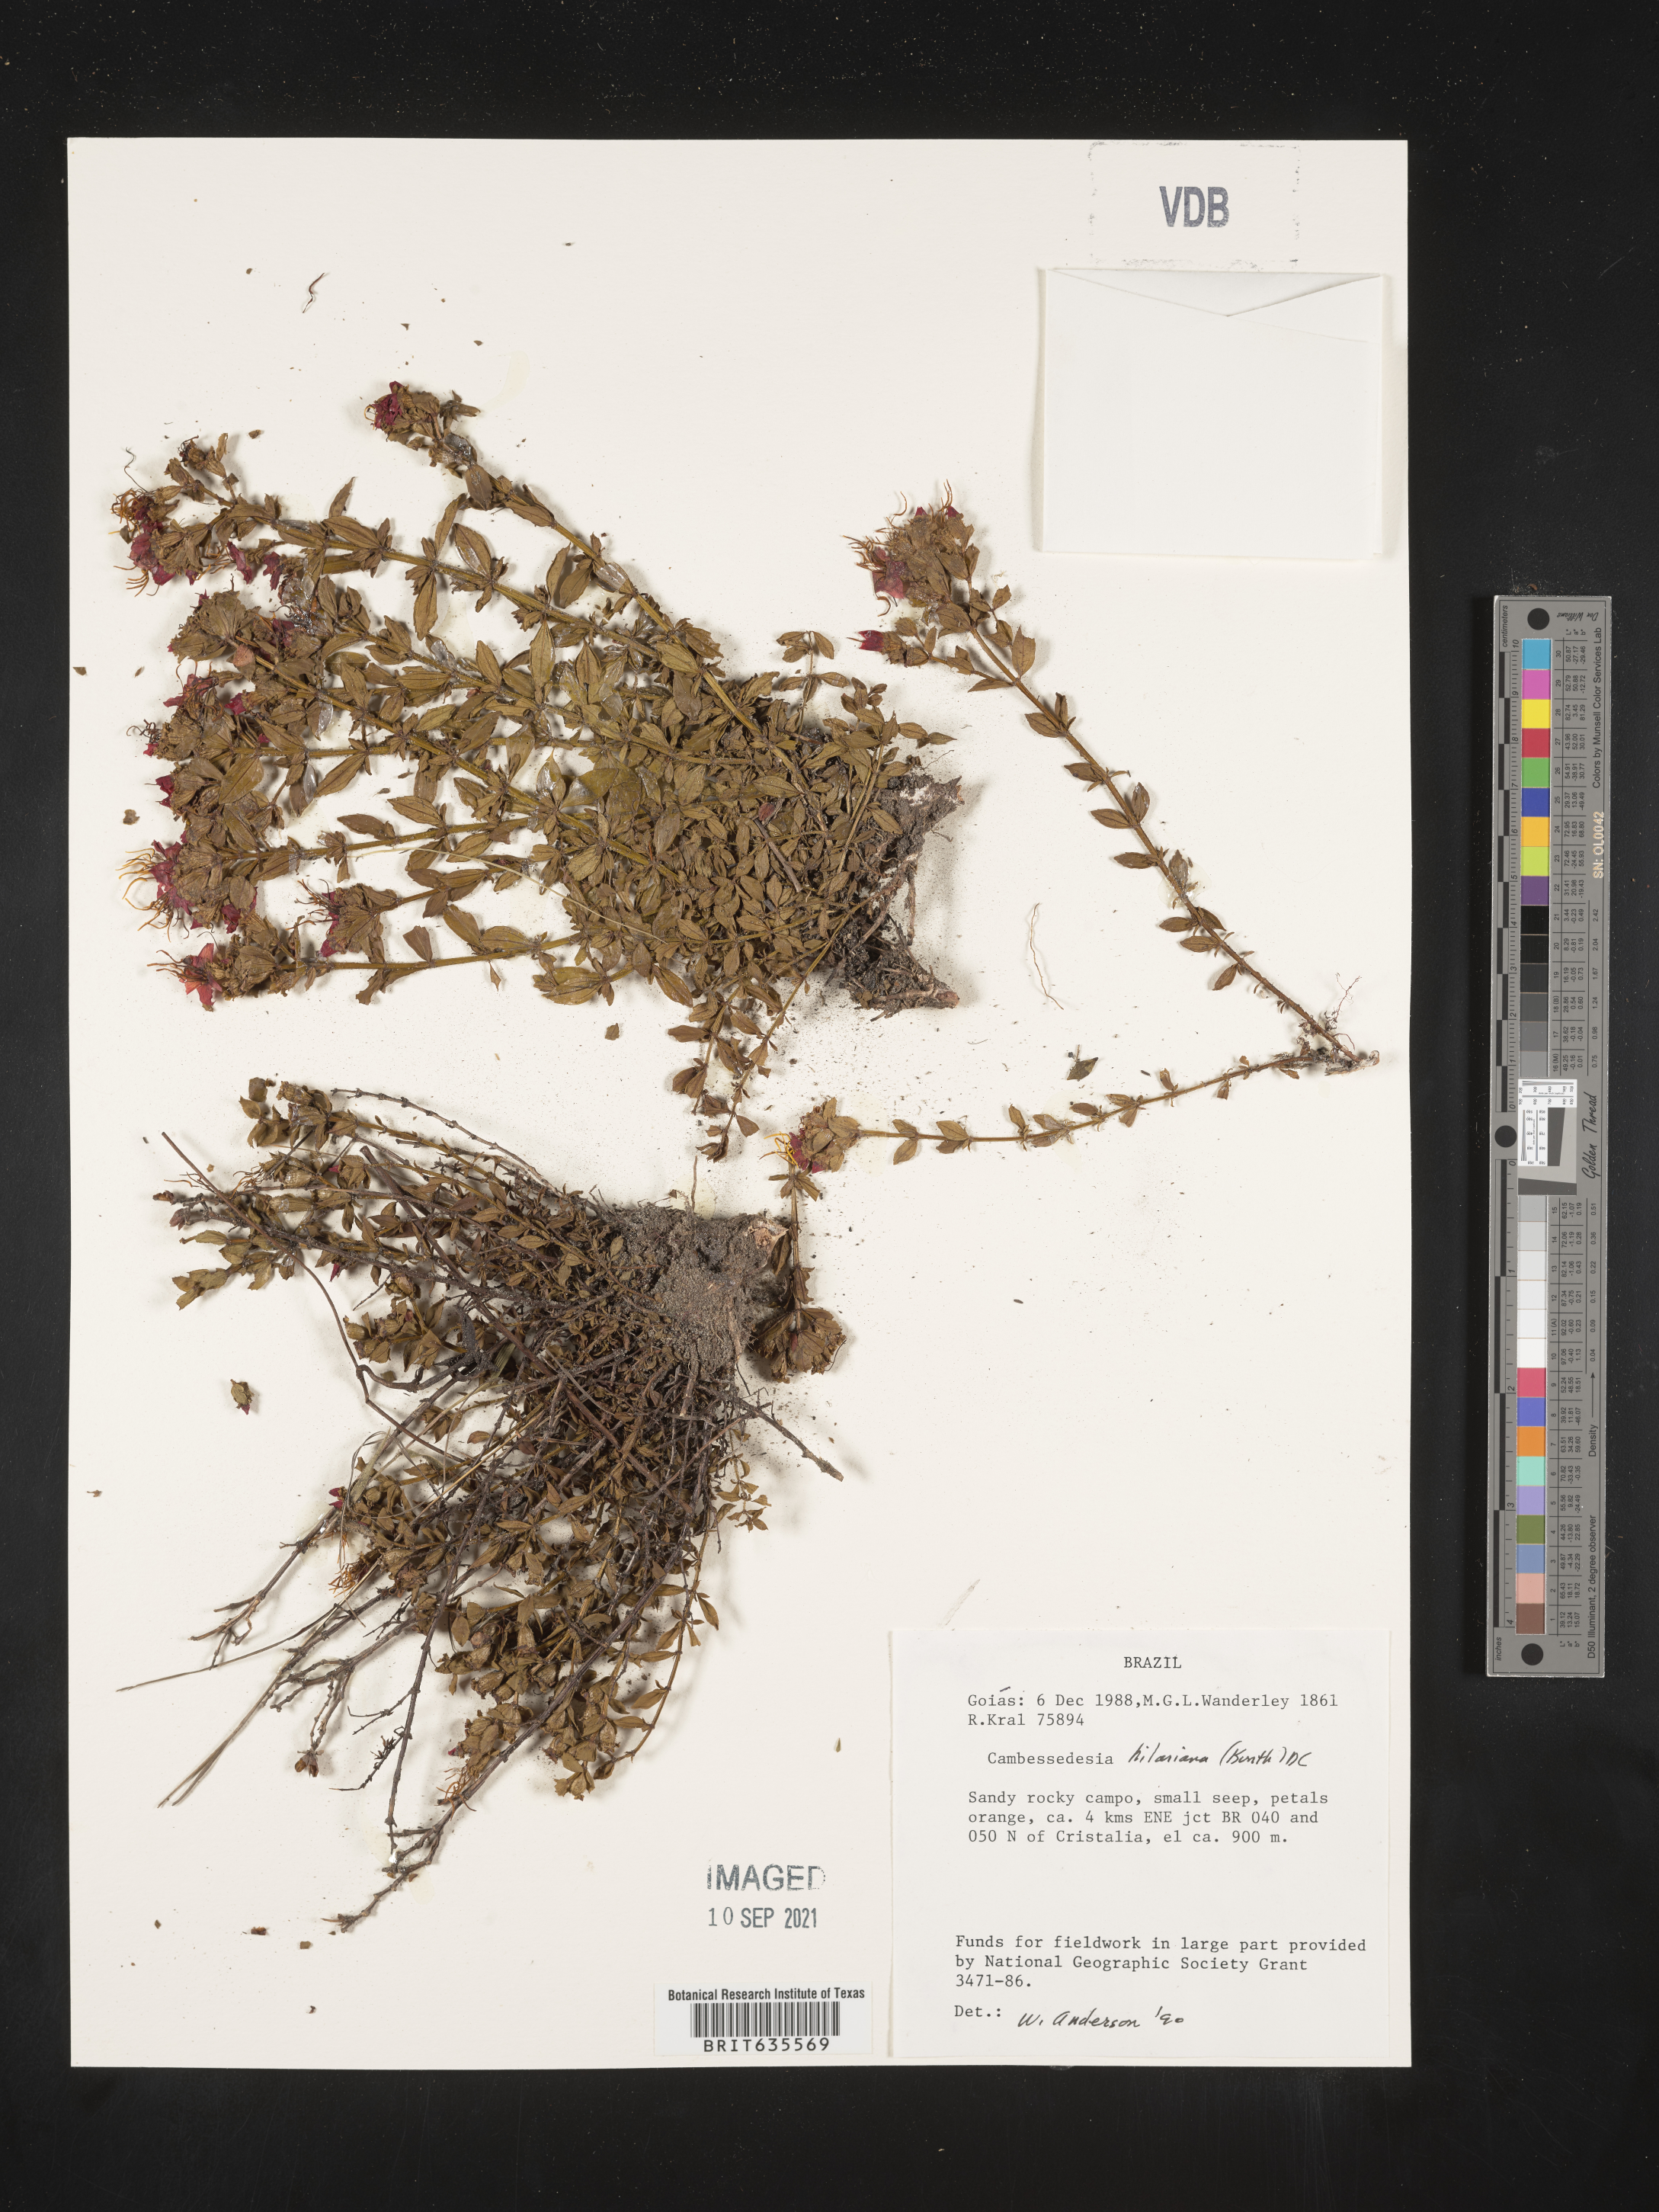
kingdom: Plantae
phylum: Tracheophyta
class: Magnoliopsida
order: Myrtales
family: Melastomataceae
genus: Cambessedesia
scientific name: Cambessedesia
